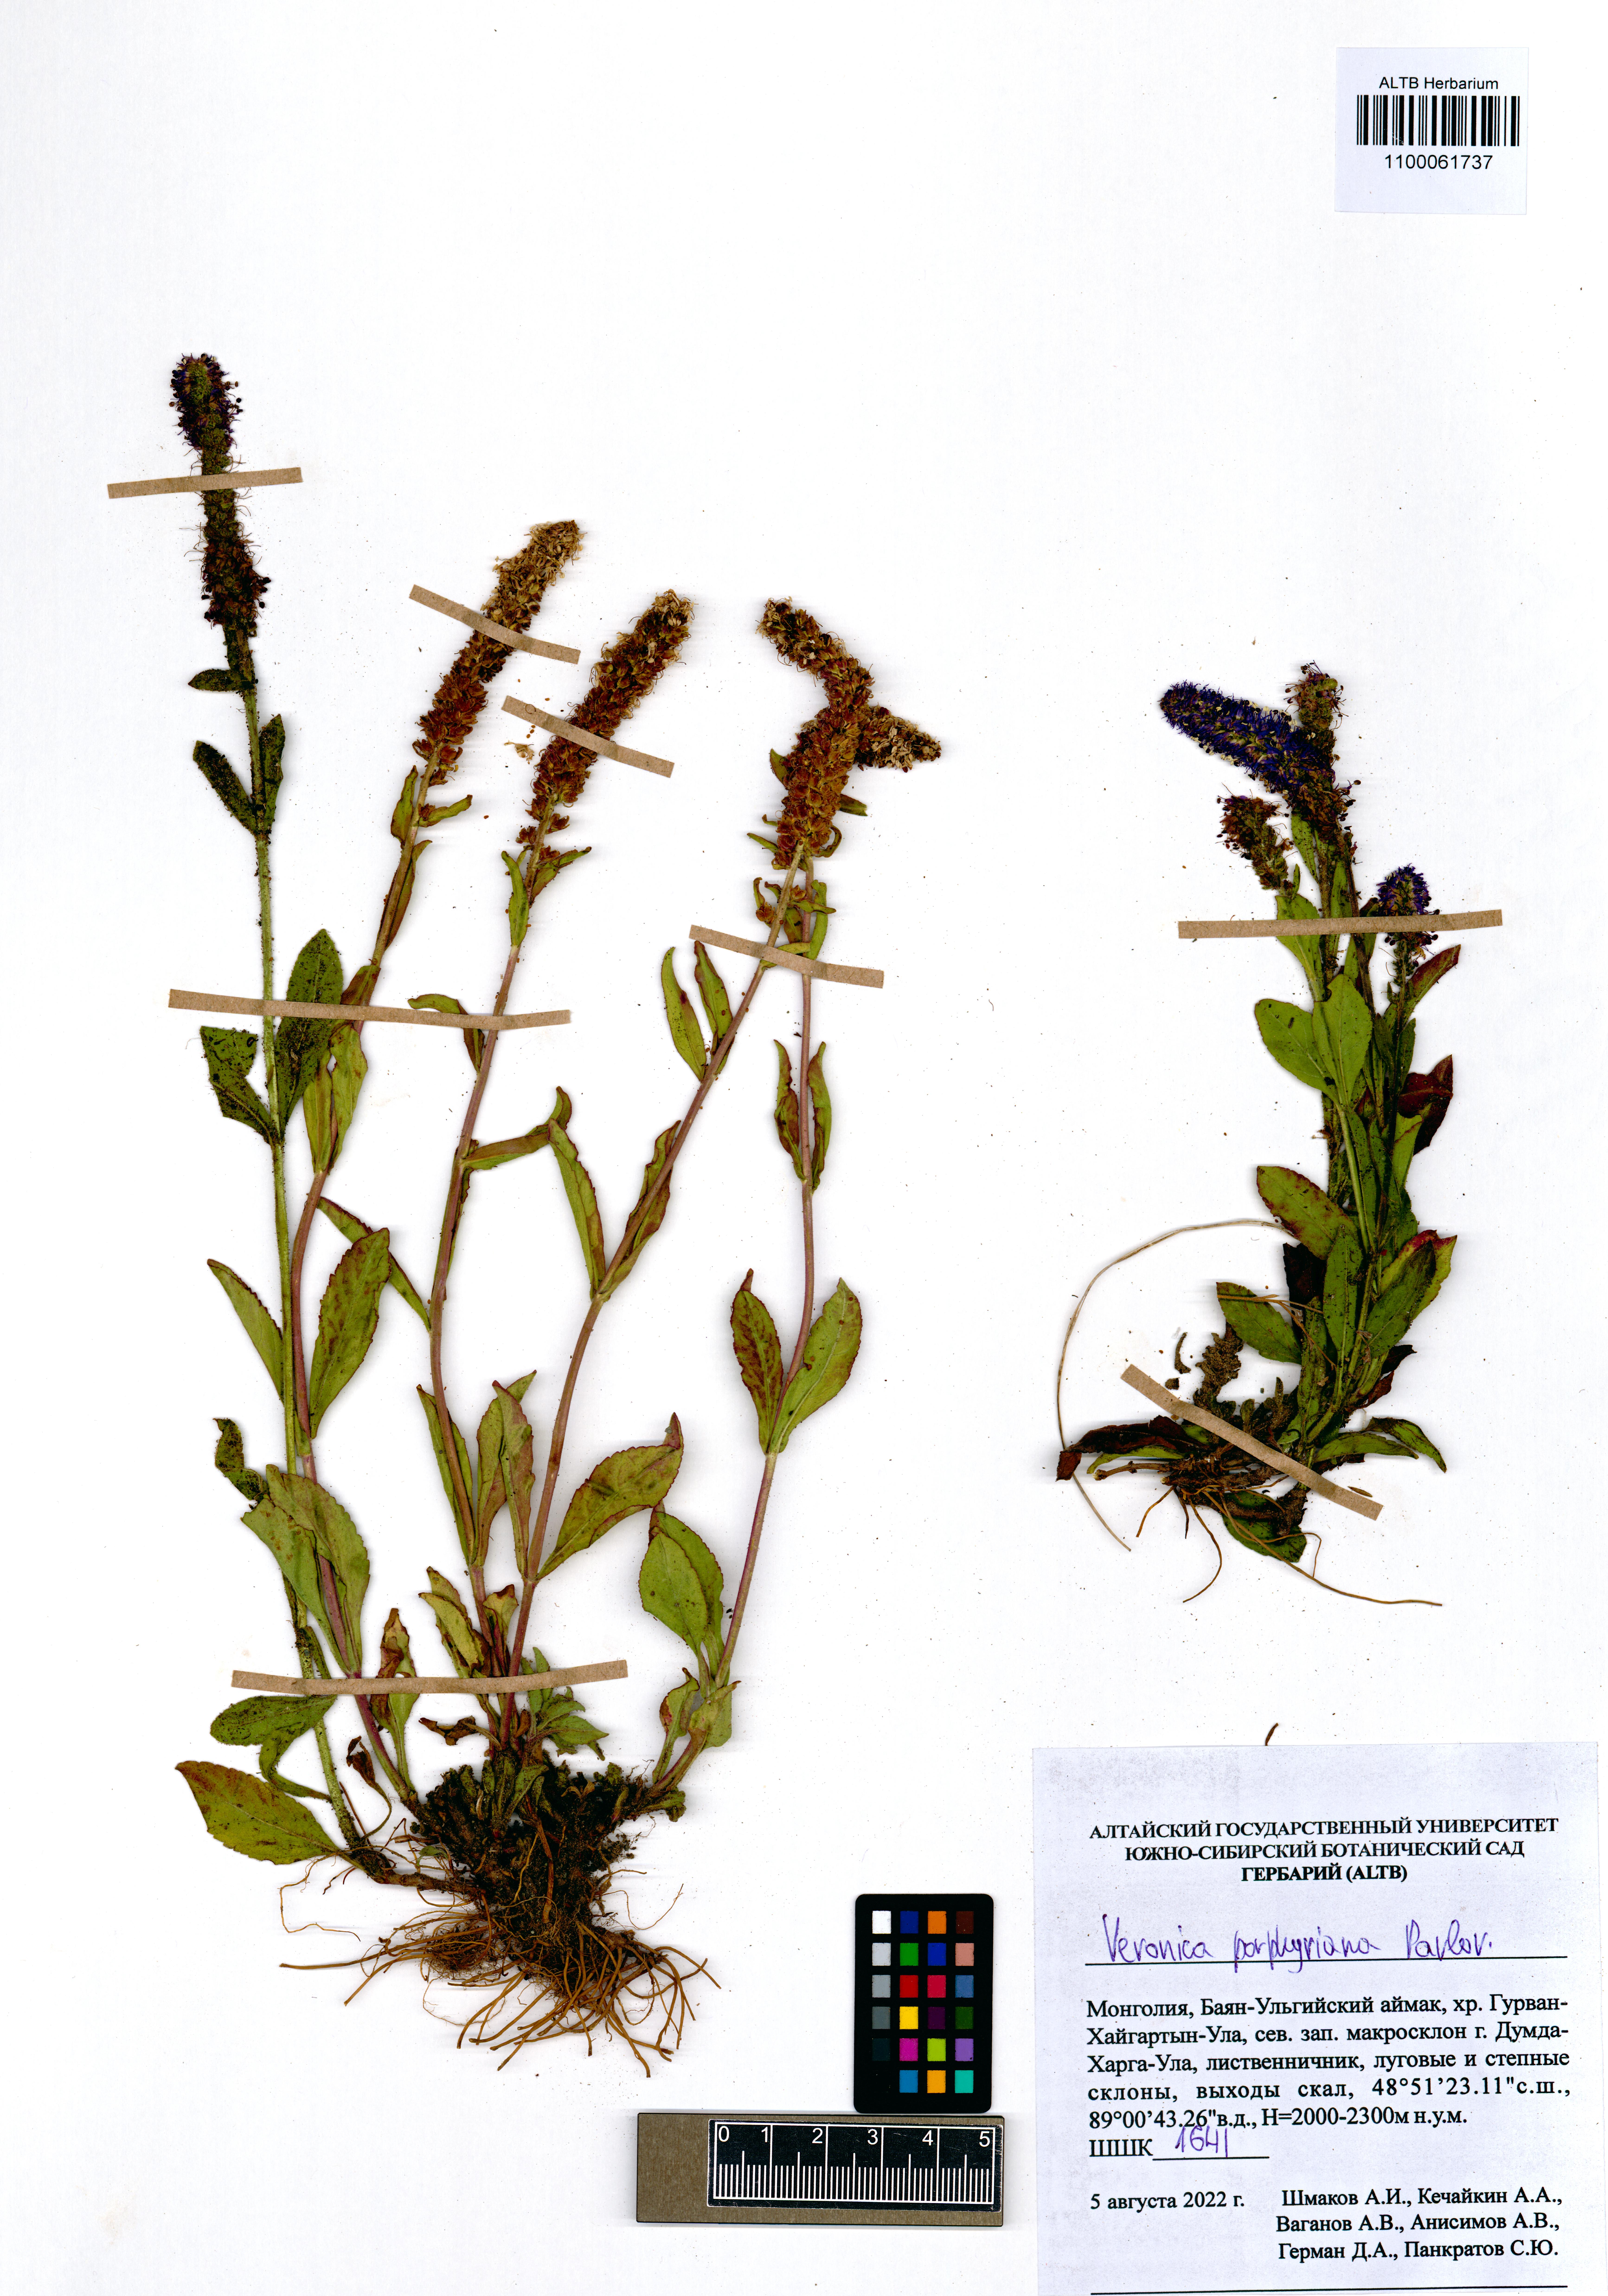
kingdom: Plantae
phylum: Tracheophyta
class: Magnoliopsida
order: Lamiales
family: Plantaginaceae
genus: Veronica
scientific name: Veronica porphyriana
